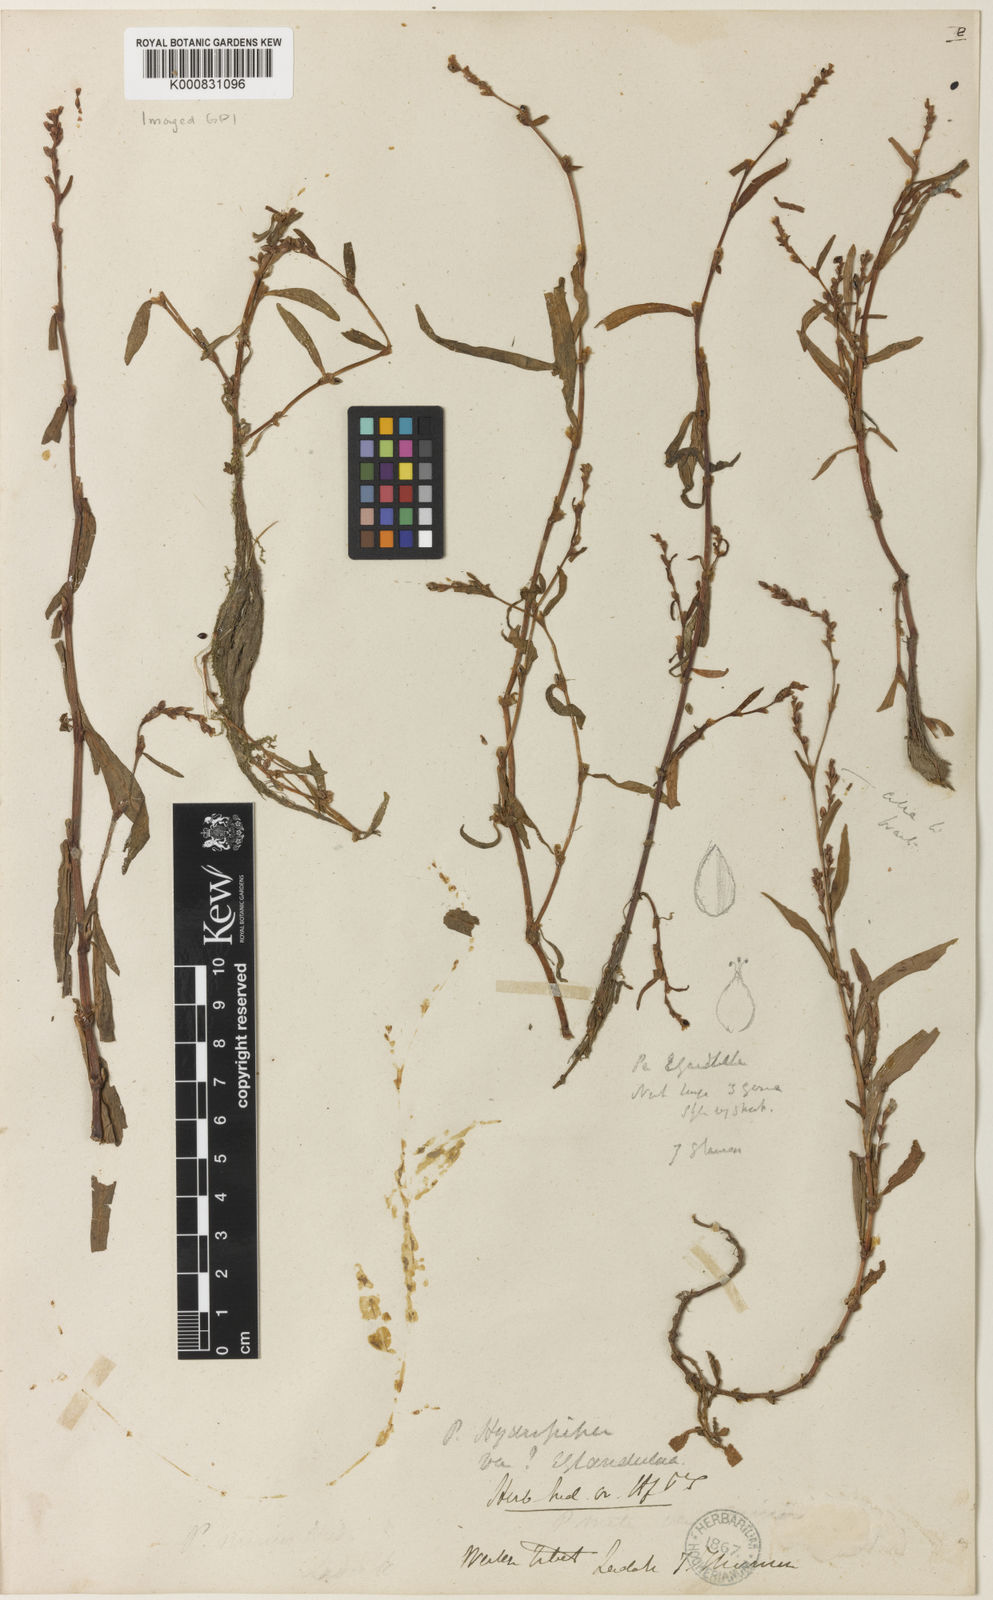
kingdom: Plantae
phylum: Tracheophyta
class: Magnoliopsida
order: Caryophyllales
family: Polygonaceae
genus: Persicaria
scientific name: Persicaria hydropiper
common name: Water-pepper
